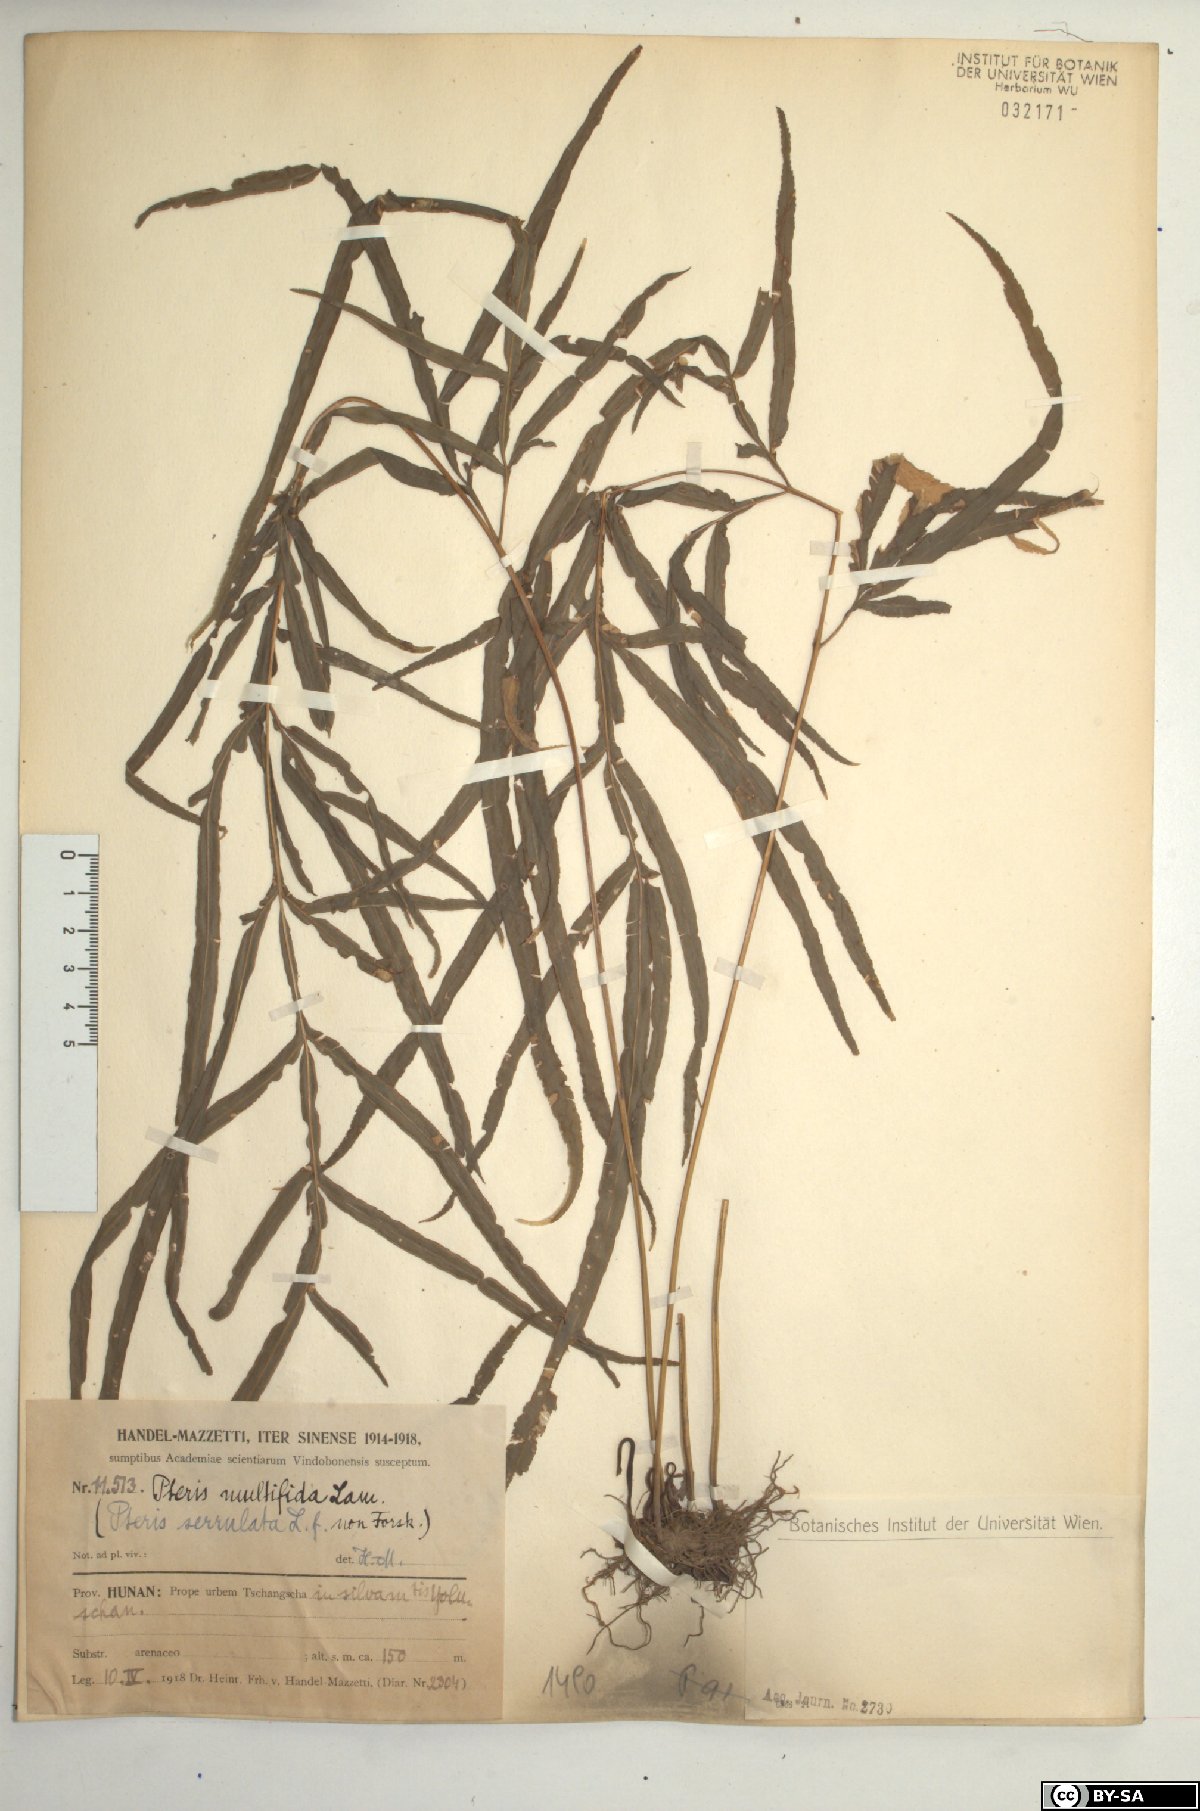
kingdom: Plantae
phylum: Tracheophyta
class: Polypodiopsida
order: Polypodiales
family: Pteridaceae
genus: Pteris
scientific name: Pteris multifida
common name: Spider brake
